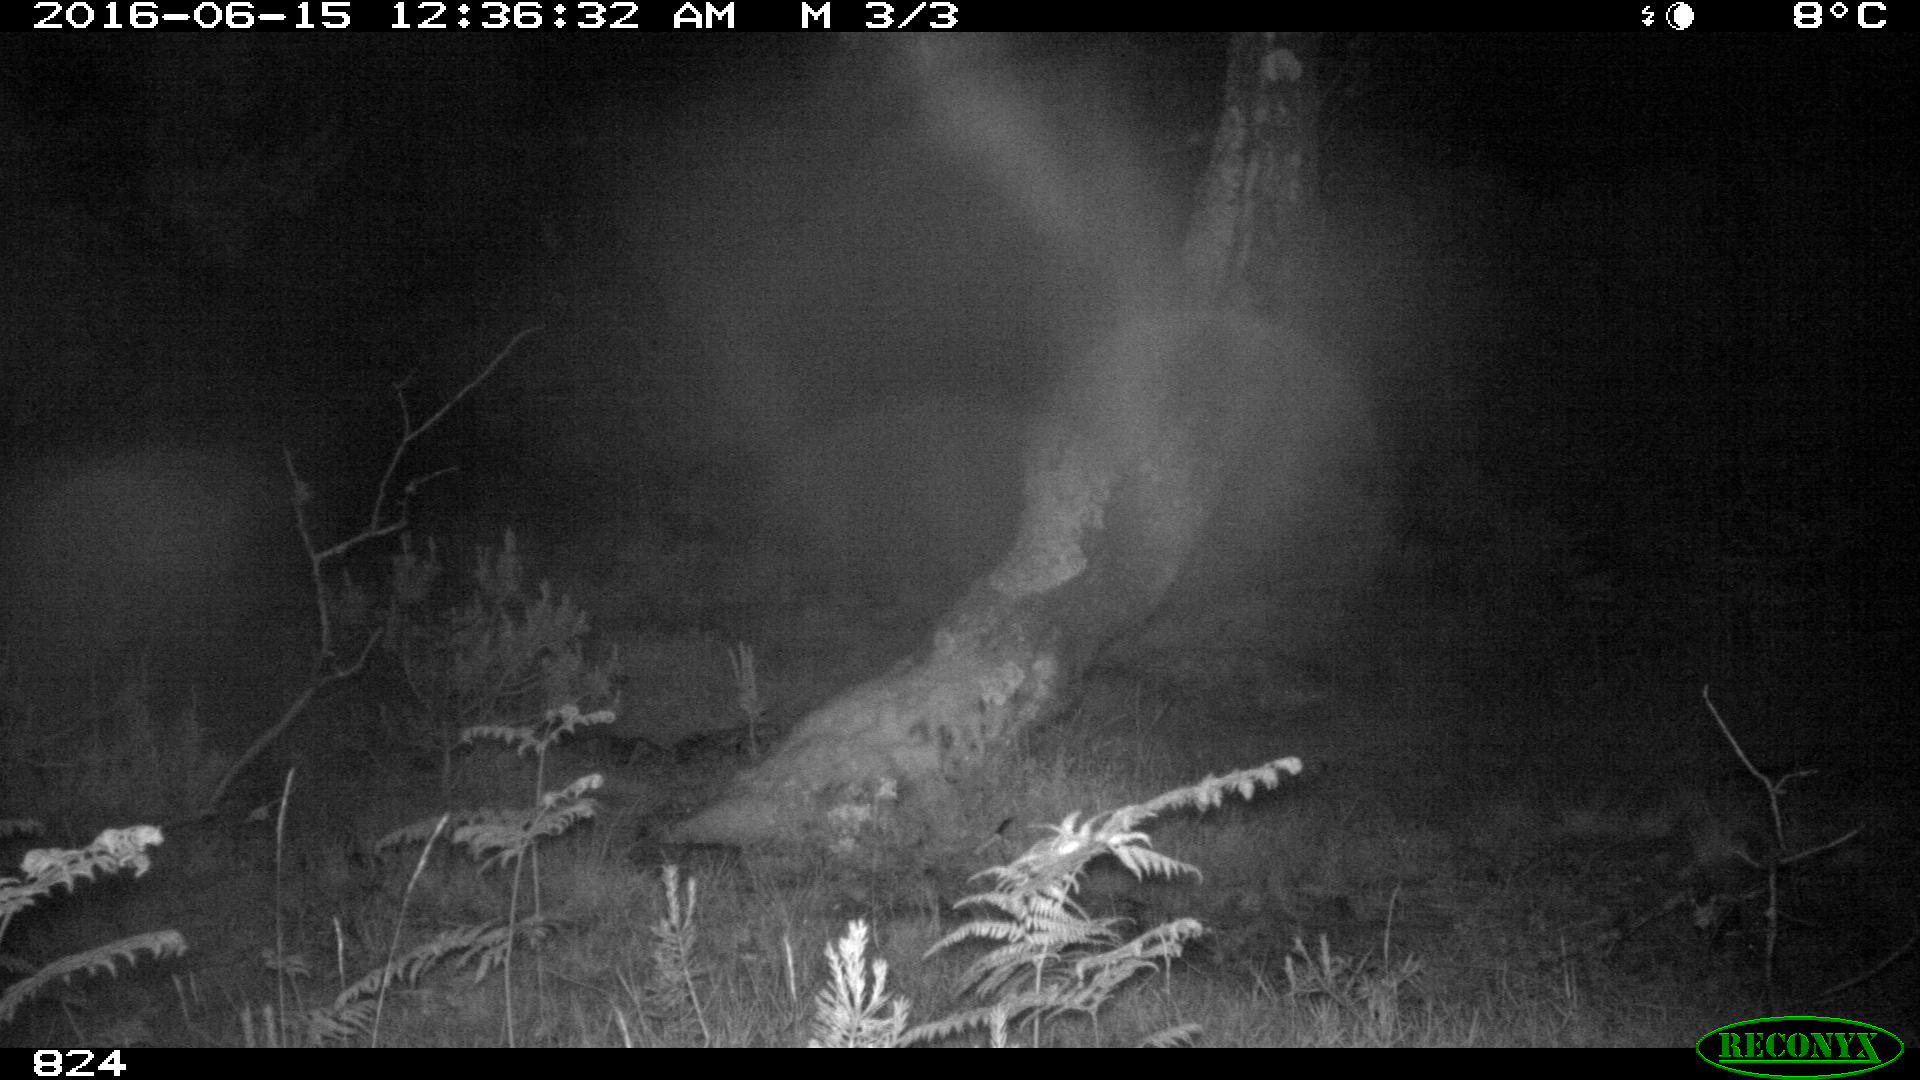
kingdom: Animalia
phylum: Chordata
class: Mammalia
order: Carnivora
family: Canidae
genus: Canis
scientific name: Canis lupus
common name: Gray wolf
